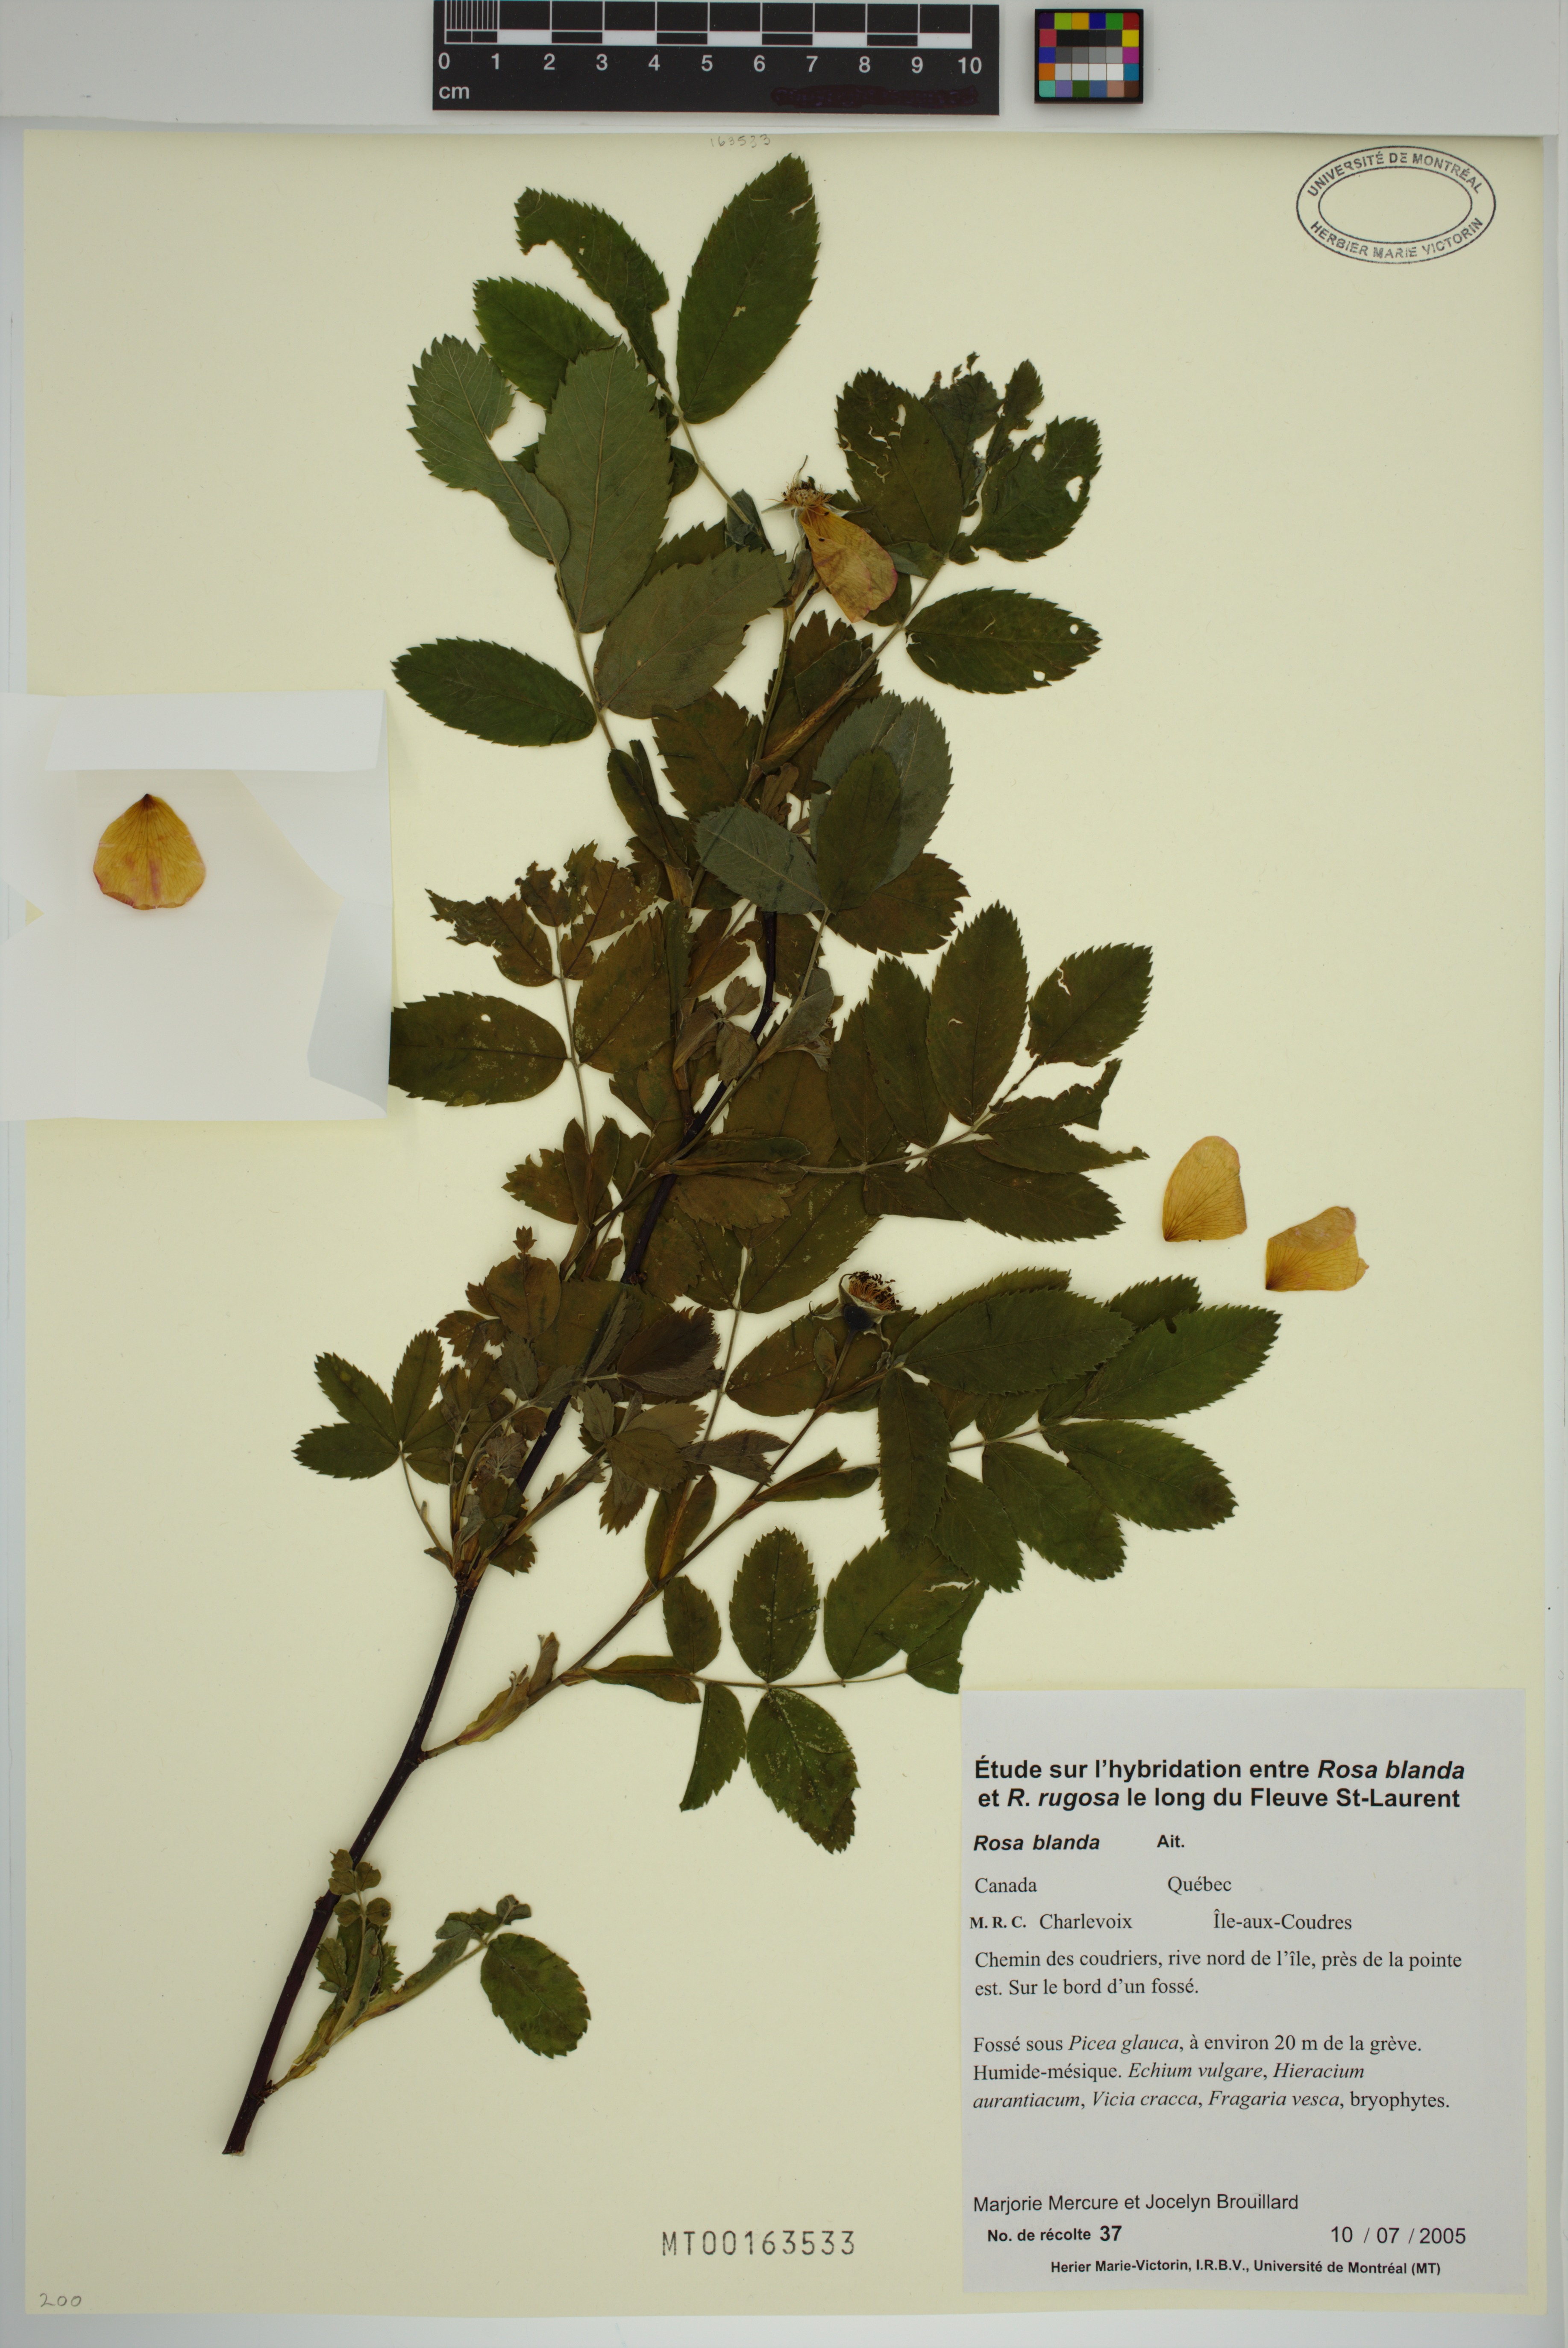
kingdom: Plantae
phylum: Tracheophyta
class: Magnoliopsida
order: Rosales
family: Rosaceae
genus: Rosa
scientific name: Rosa blanda
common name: Smooth rose
